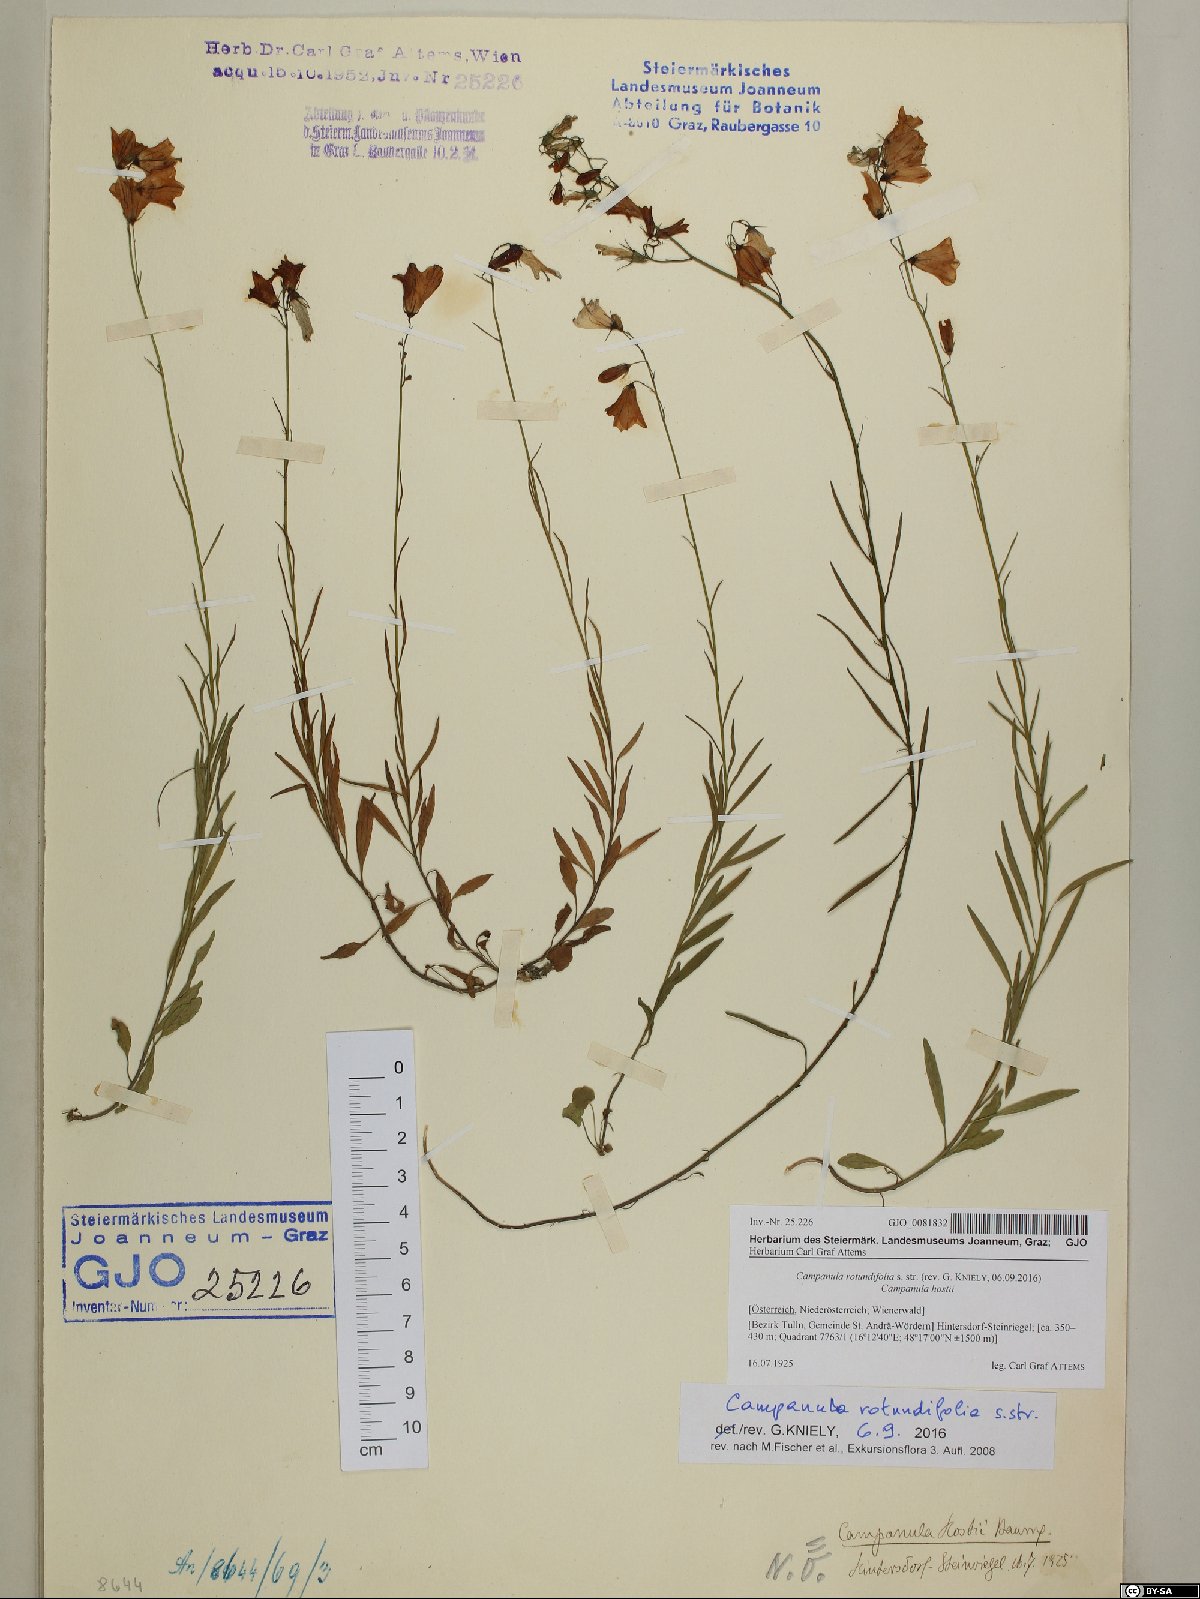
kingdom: Plantae
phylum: Tracheophyta
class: Magnoliopsida
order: Asterales
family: Campanulaceae
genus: Campanula
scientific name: Campanula rotundifolia
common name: Harebell
